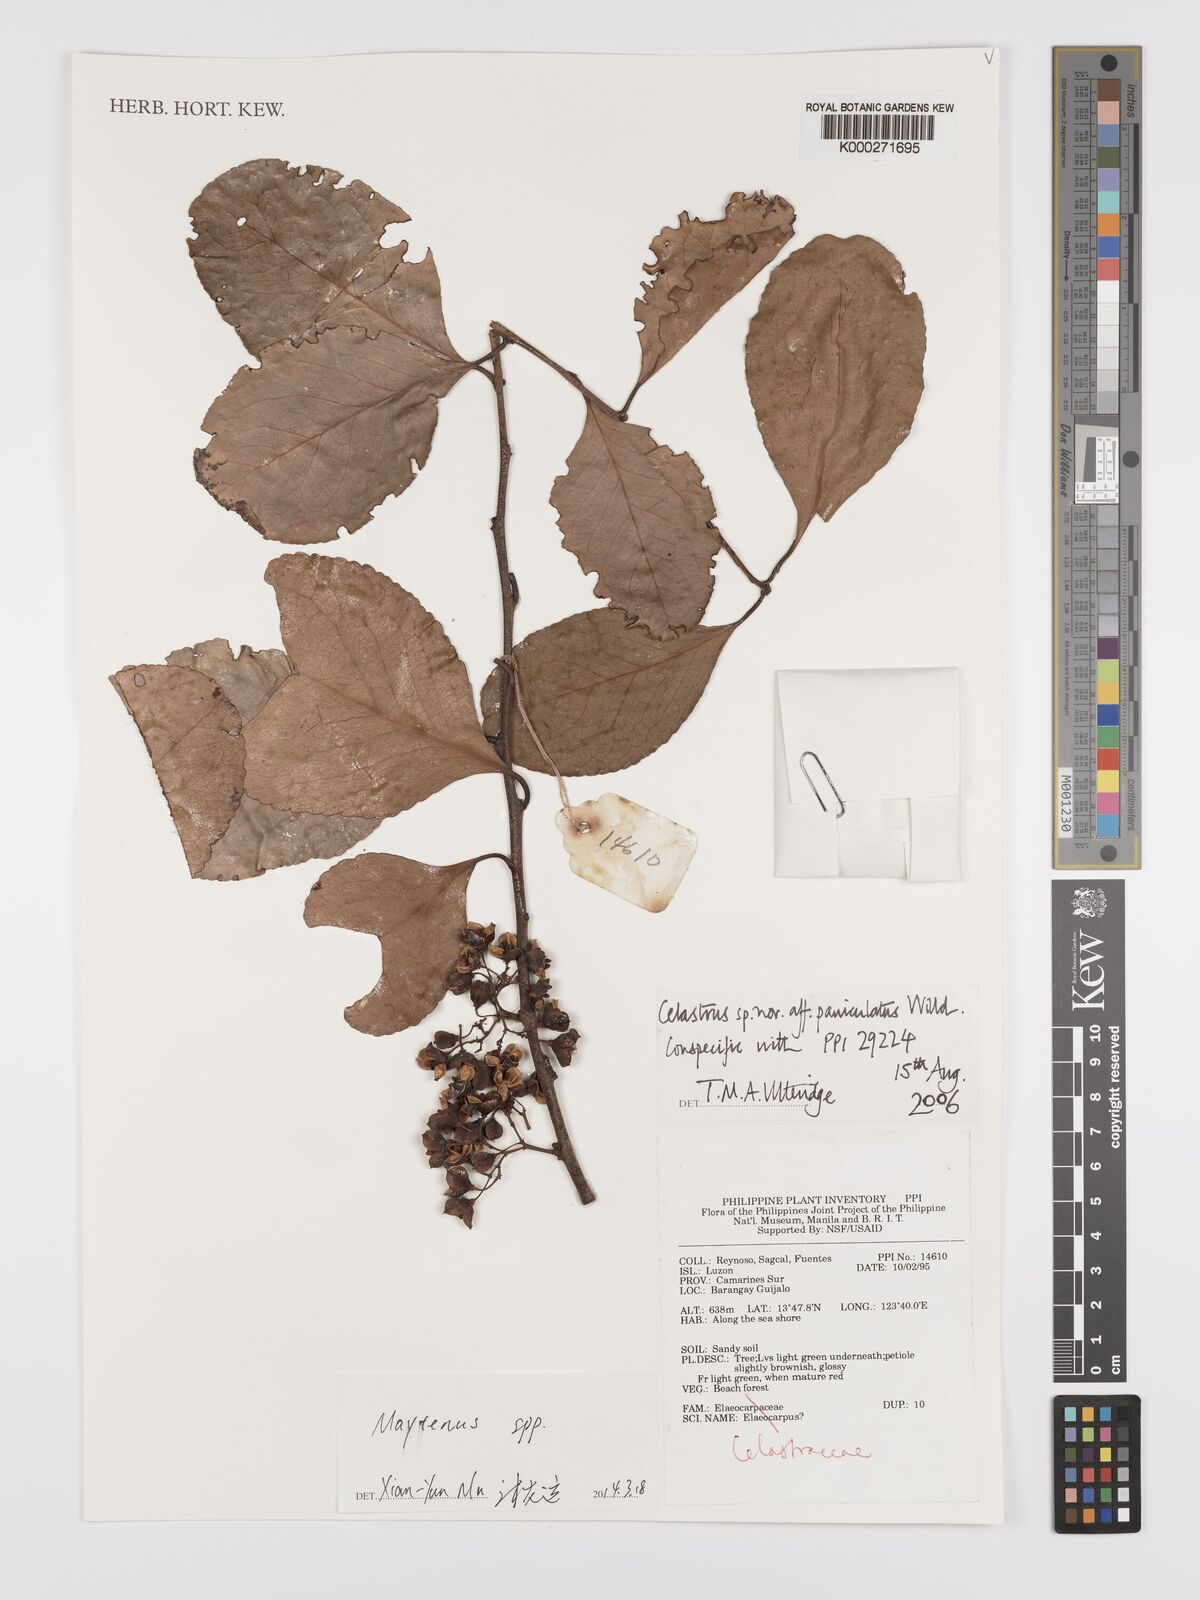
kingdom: Plantae
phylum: Tracheophyta
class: Magnoliopsida
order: Celastrales
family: Celastraceae
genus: Celastrus
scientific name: Celastrus paniculatus
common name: Oriental bittersweet; staff vine
